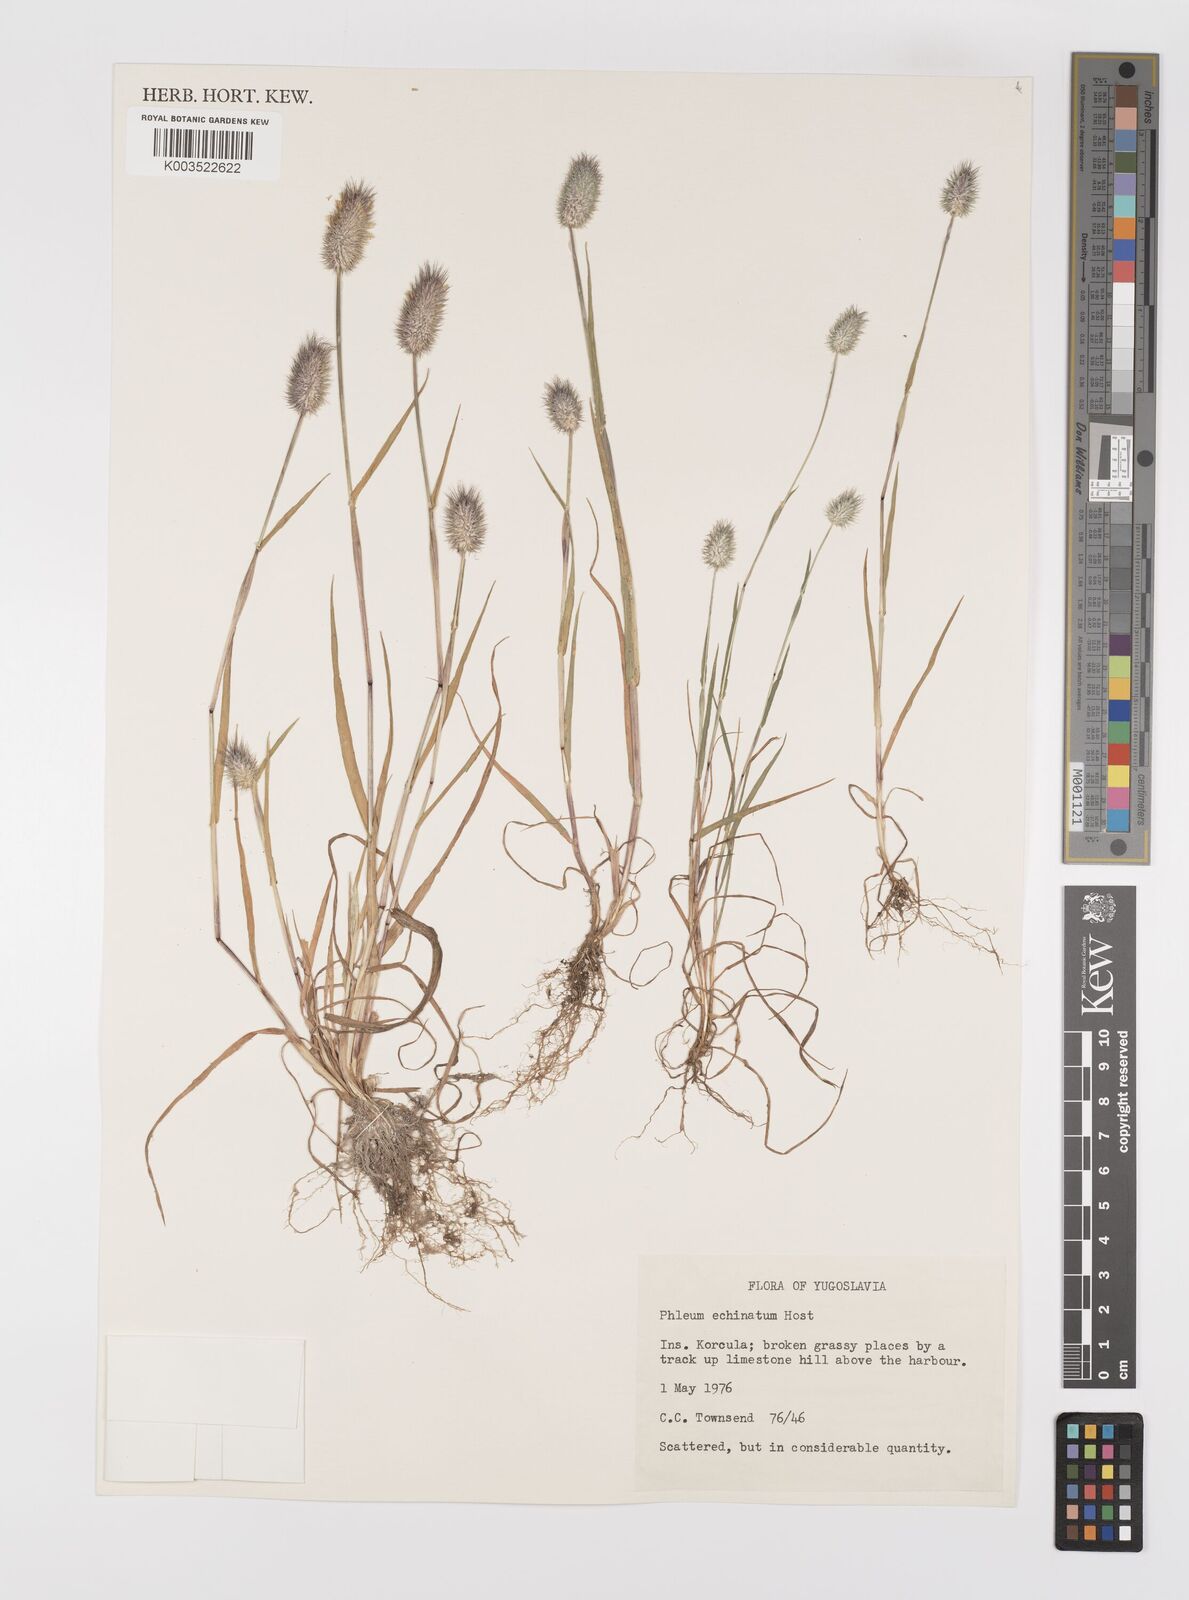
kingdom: Plantae
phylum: Tracheophyta
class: Liliopsida
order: Poales
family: Poaceae
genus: Phleum
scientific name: Phleum echinatum
